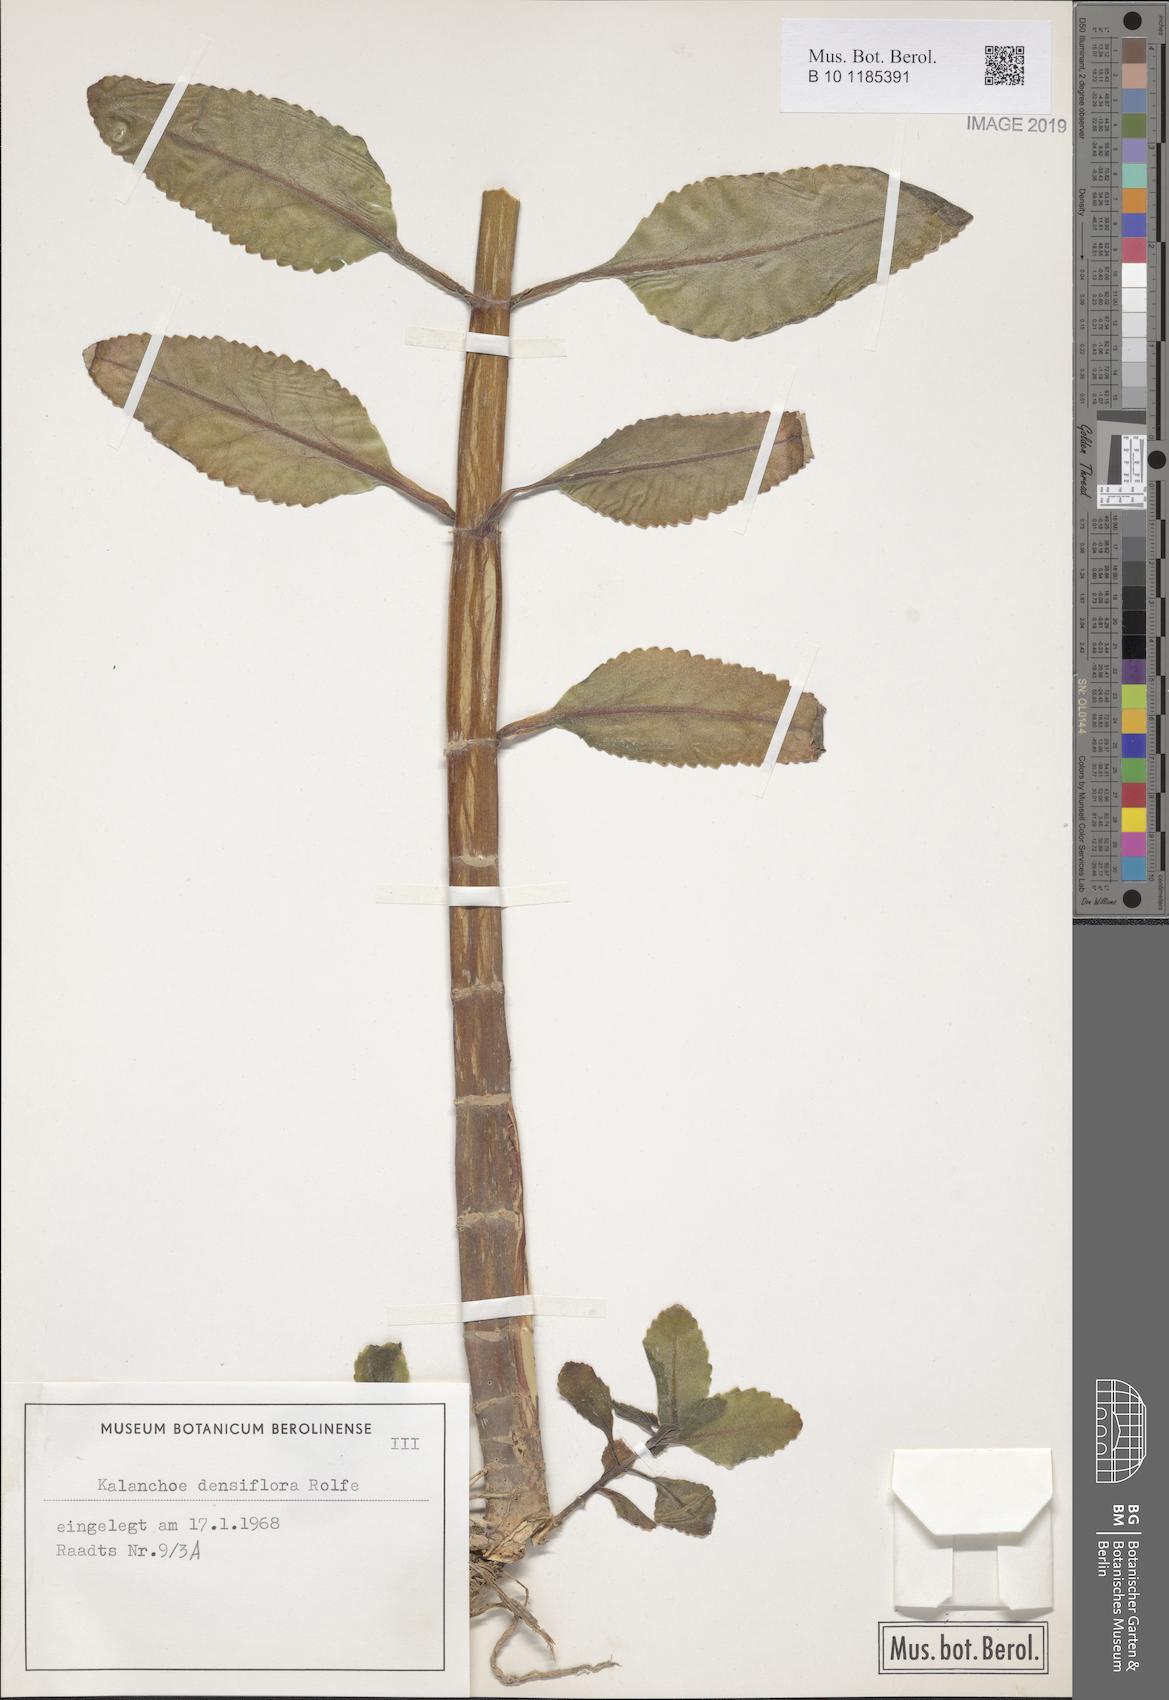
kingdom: Plantae
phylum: Tracheophyta
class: Magnoliopsida
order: Saxifragales
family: Crassulaceae
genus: Kalanchoe
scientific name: Kalanchoe densiflora
